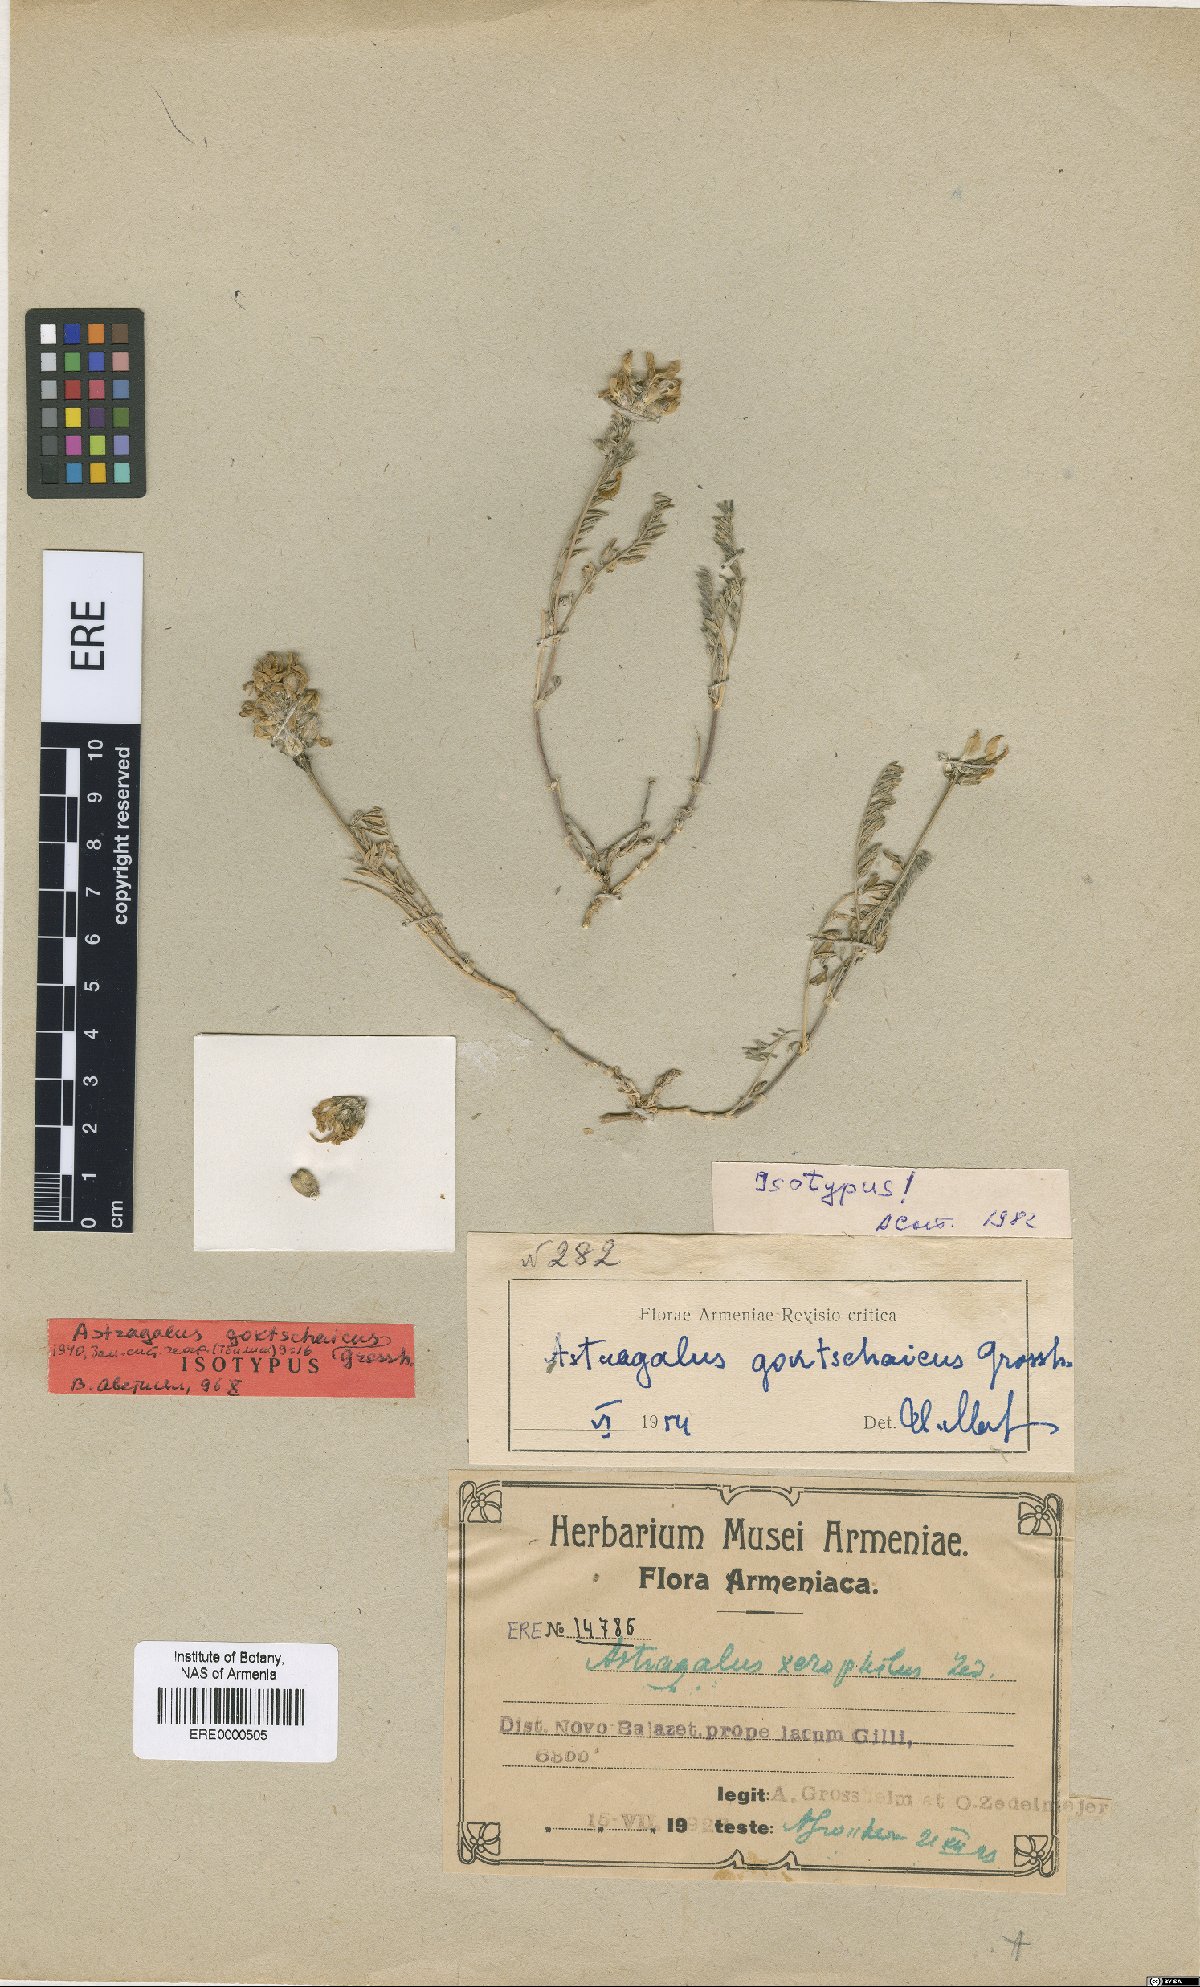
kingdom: Plantae
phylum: Tracheophyta
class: Magnoliopsida
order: Fabales
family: Fabaceae
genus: Astragalus
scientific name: Astragalus onobrychis
